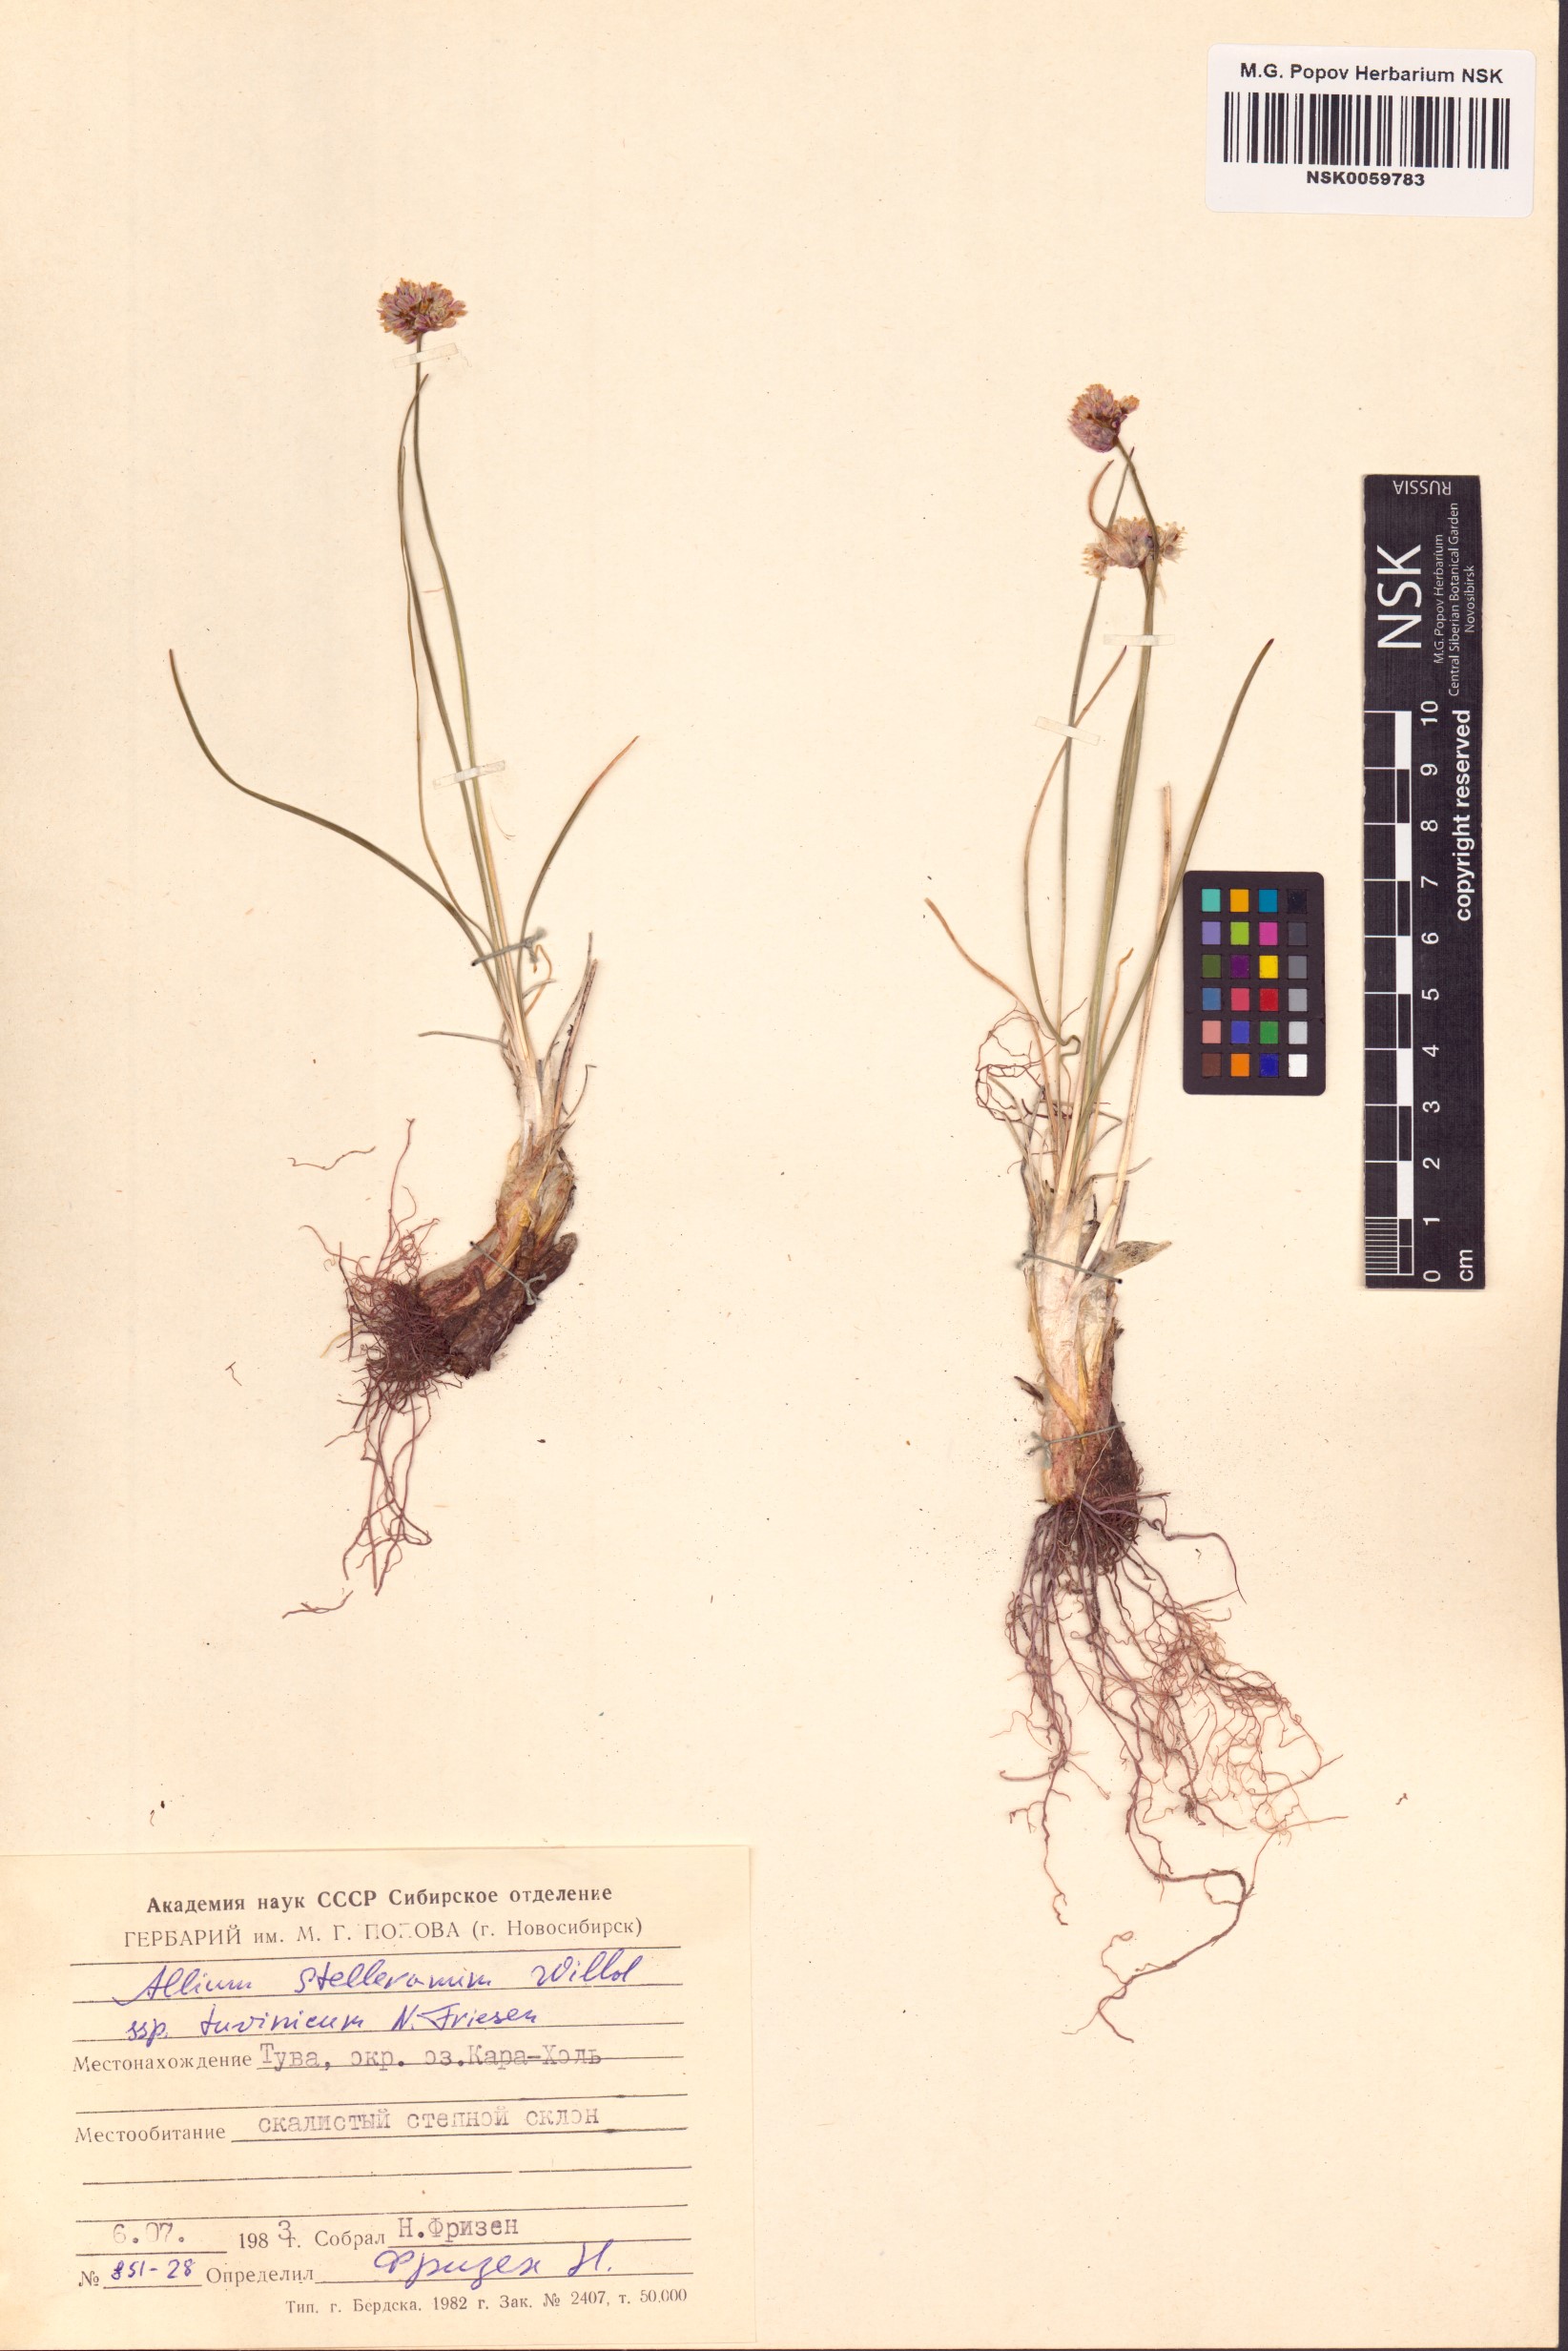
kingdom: Plantae
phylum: Tracheophyta
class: Liliopsida
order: Asparagales
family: Amaryllidaceae
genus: Allium
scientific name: Allium tuvinicum
